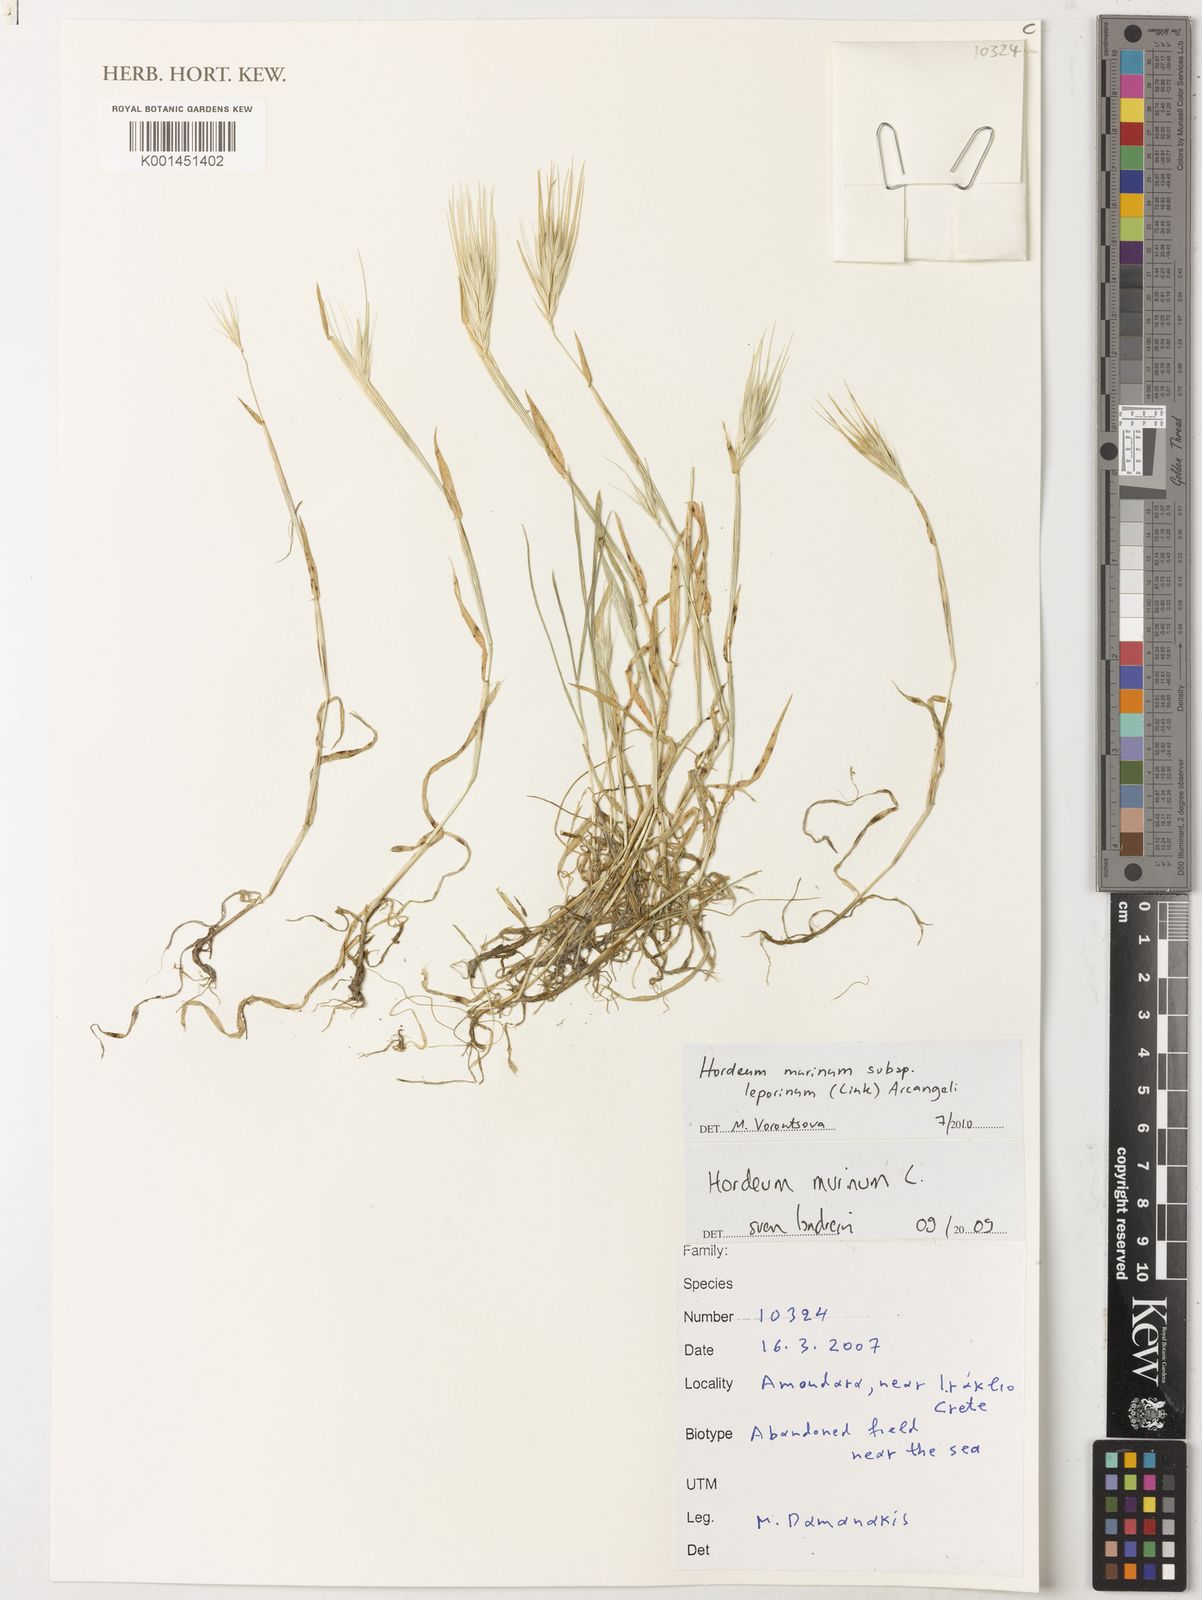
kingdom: Plantae
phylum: Tracheophyta
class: Liliopsida
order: Poales
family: Poaceae
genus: Hordeum
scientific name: Hordeum murinum
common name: Wall barley
